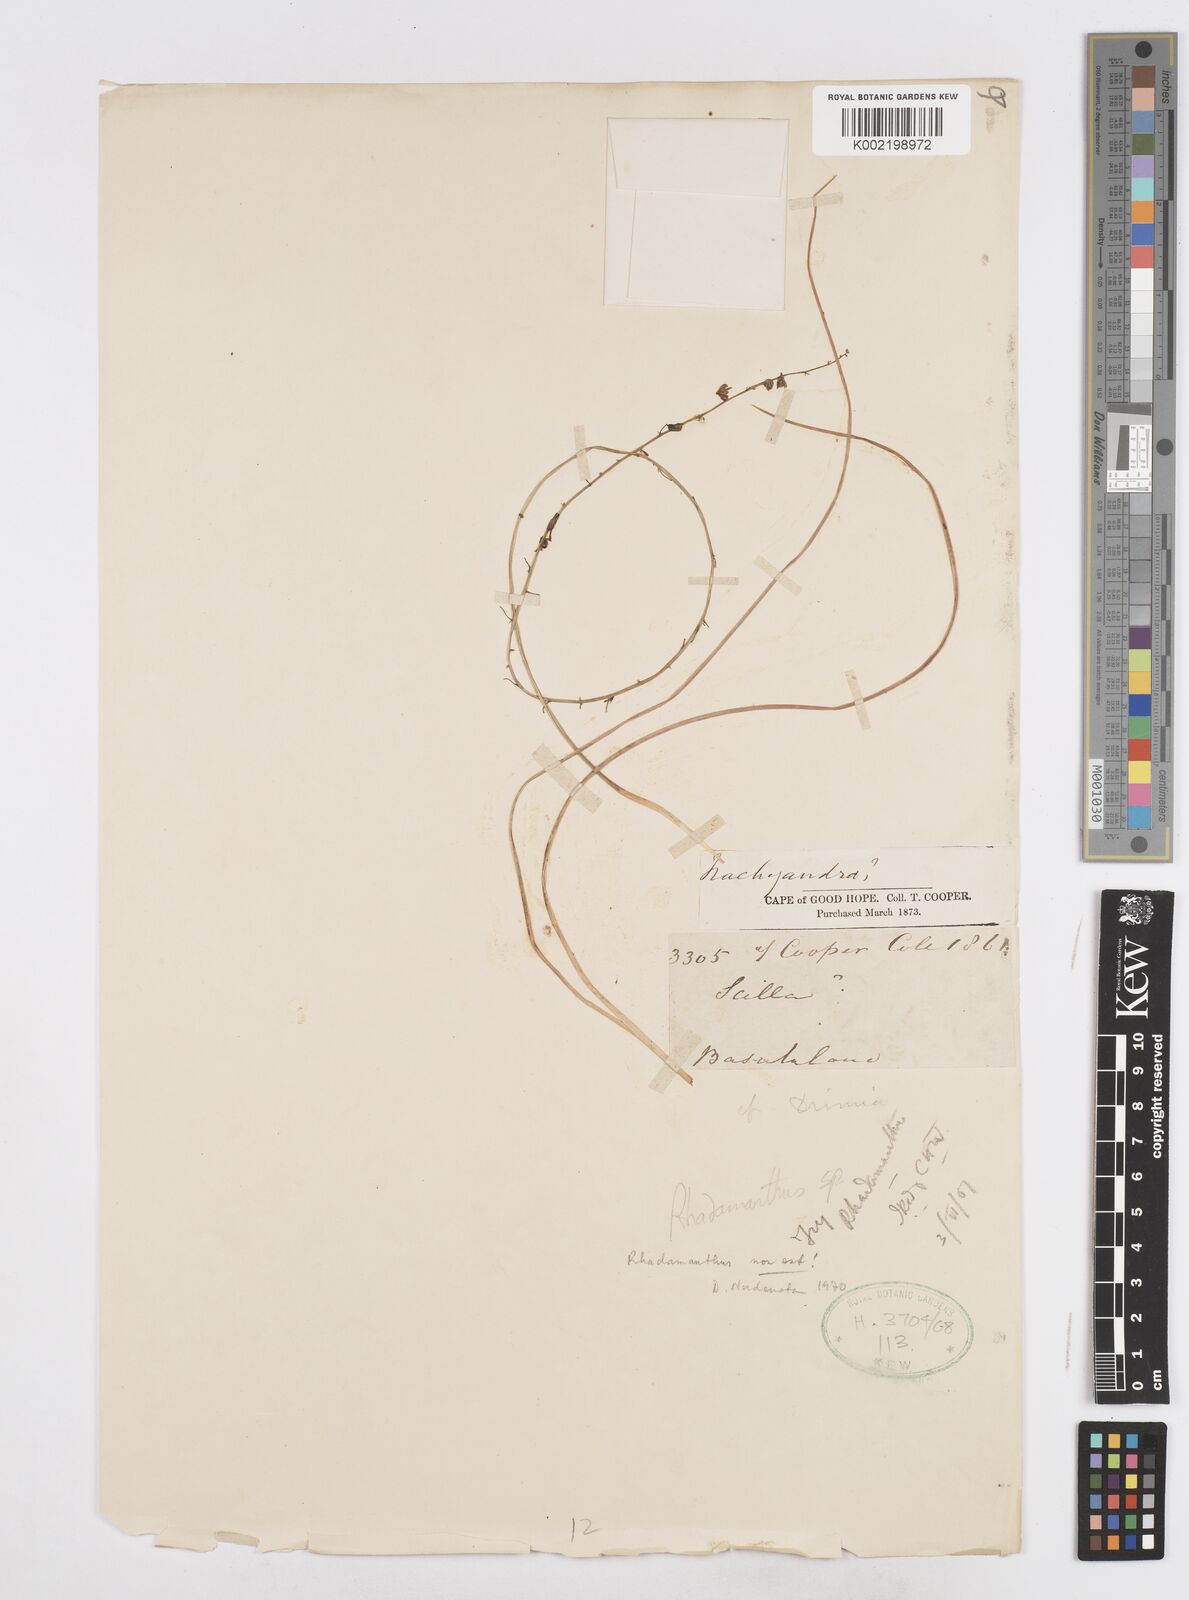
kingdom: Plantae
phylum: Tracheophyta
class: Liliopsida
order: Asparagales
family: Asparagaceae
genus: Drimia
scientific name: Drimia
